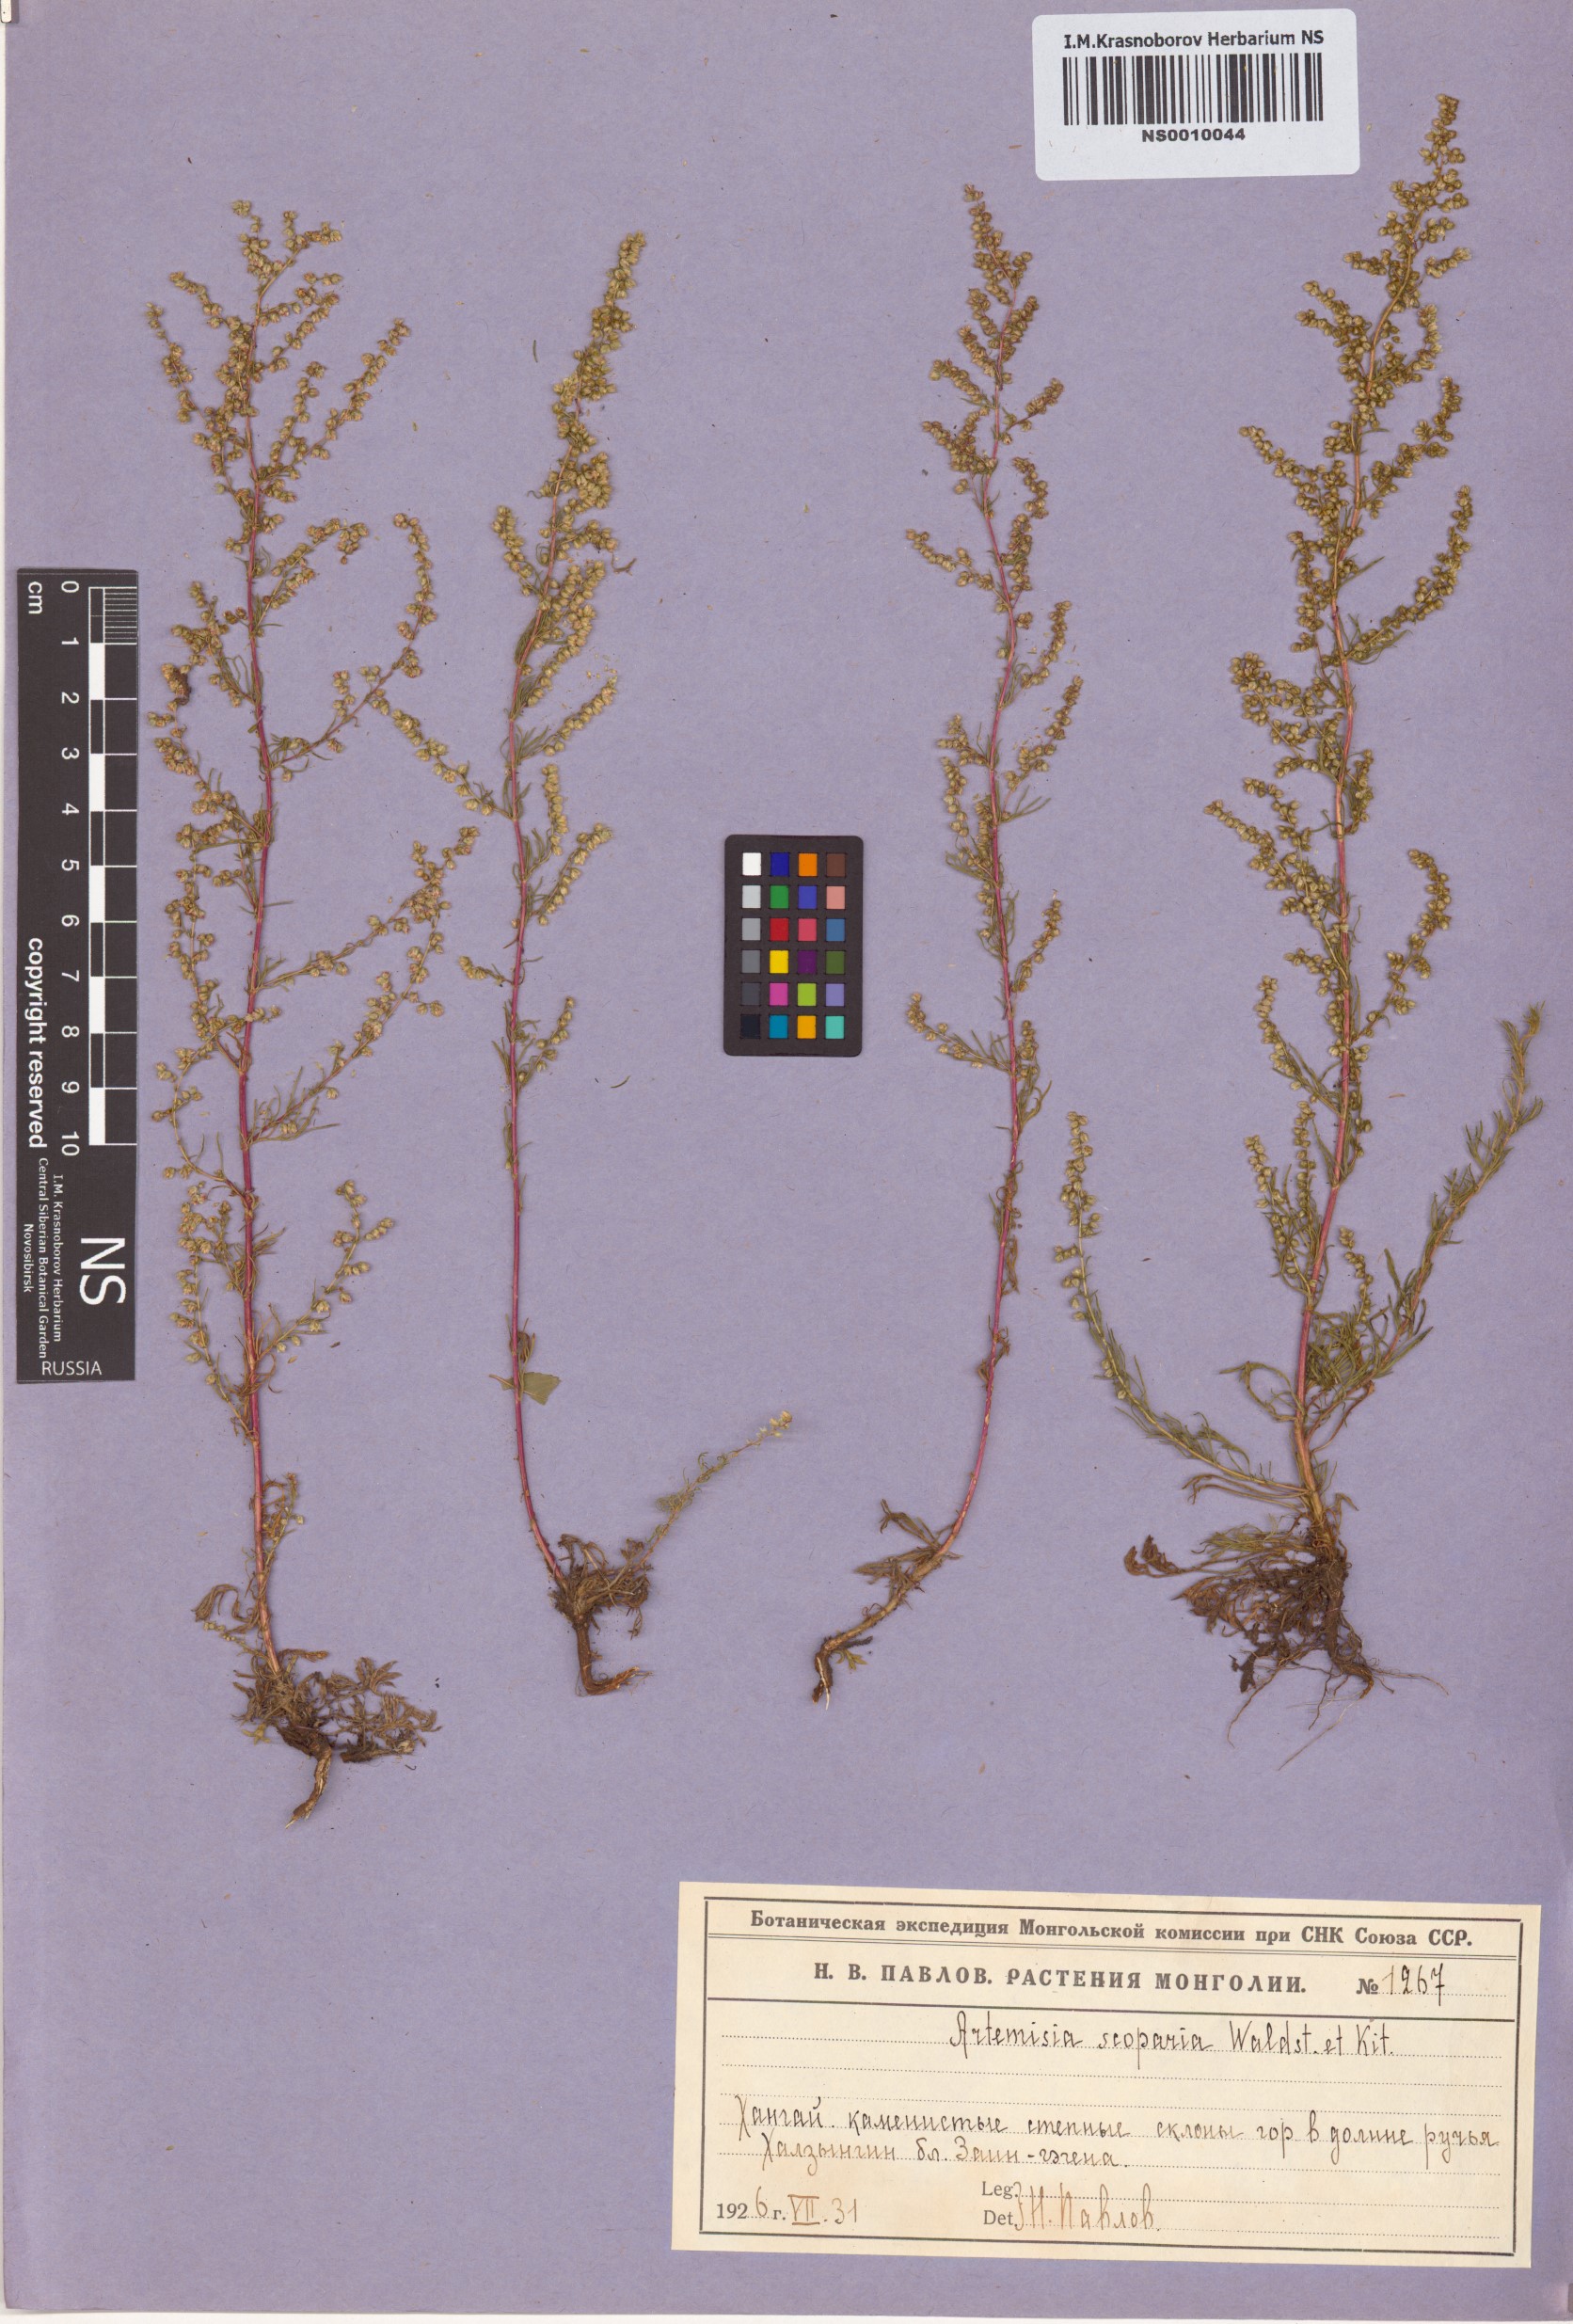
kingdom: Plantae
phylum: Tracheophyta
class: Magnoliopsida
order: Asterales
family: Asteraceae
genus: Artemisia
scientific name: Artemisia scoparia
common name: Redstem wormwood
